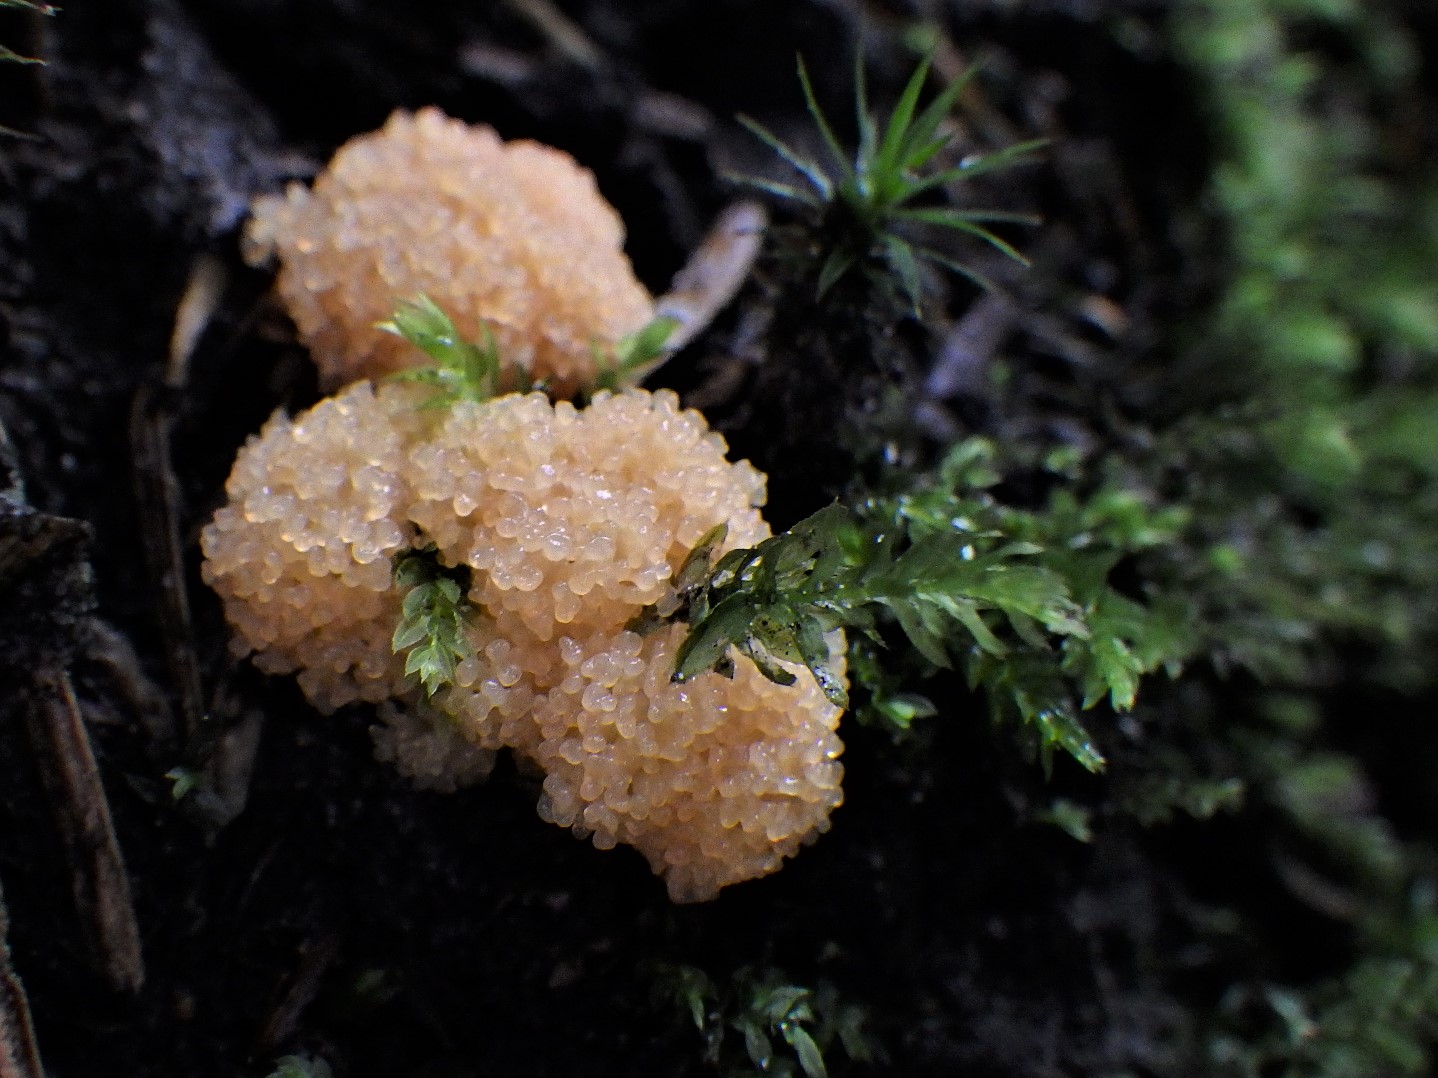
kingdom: Protozoa
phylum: Mycetozoa
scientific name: Mycetozoa
